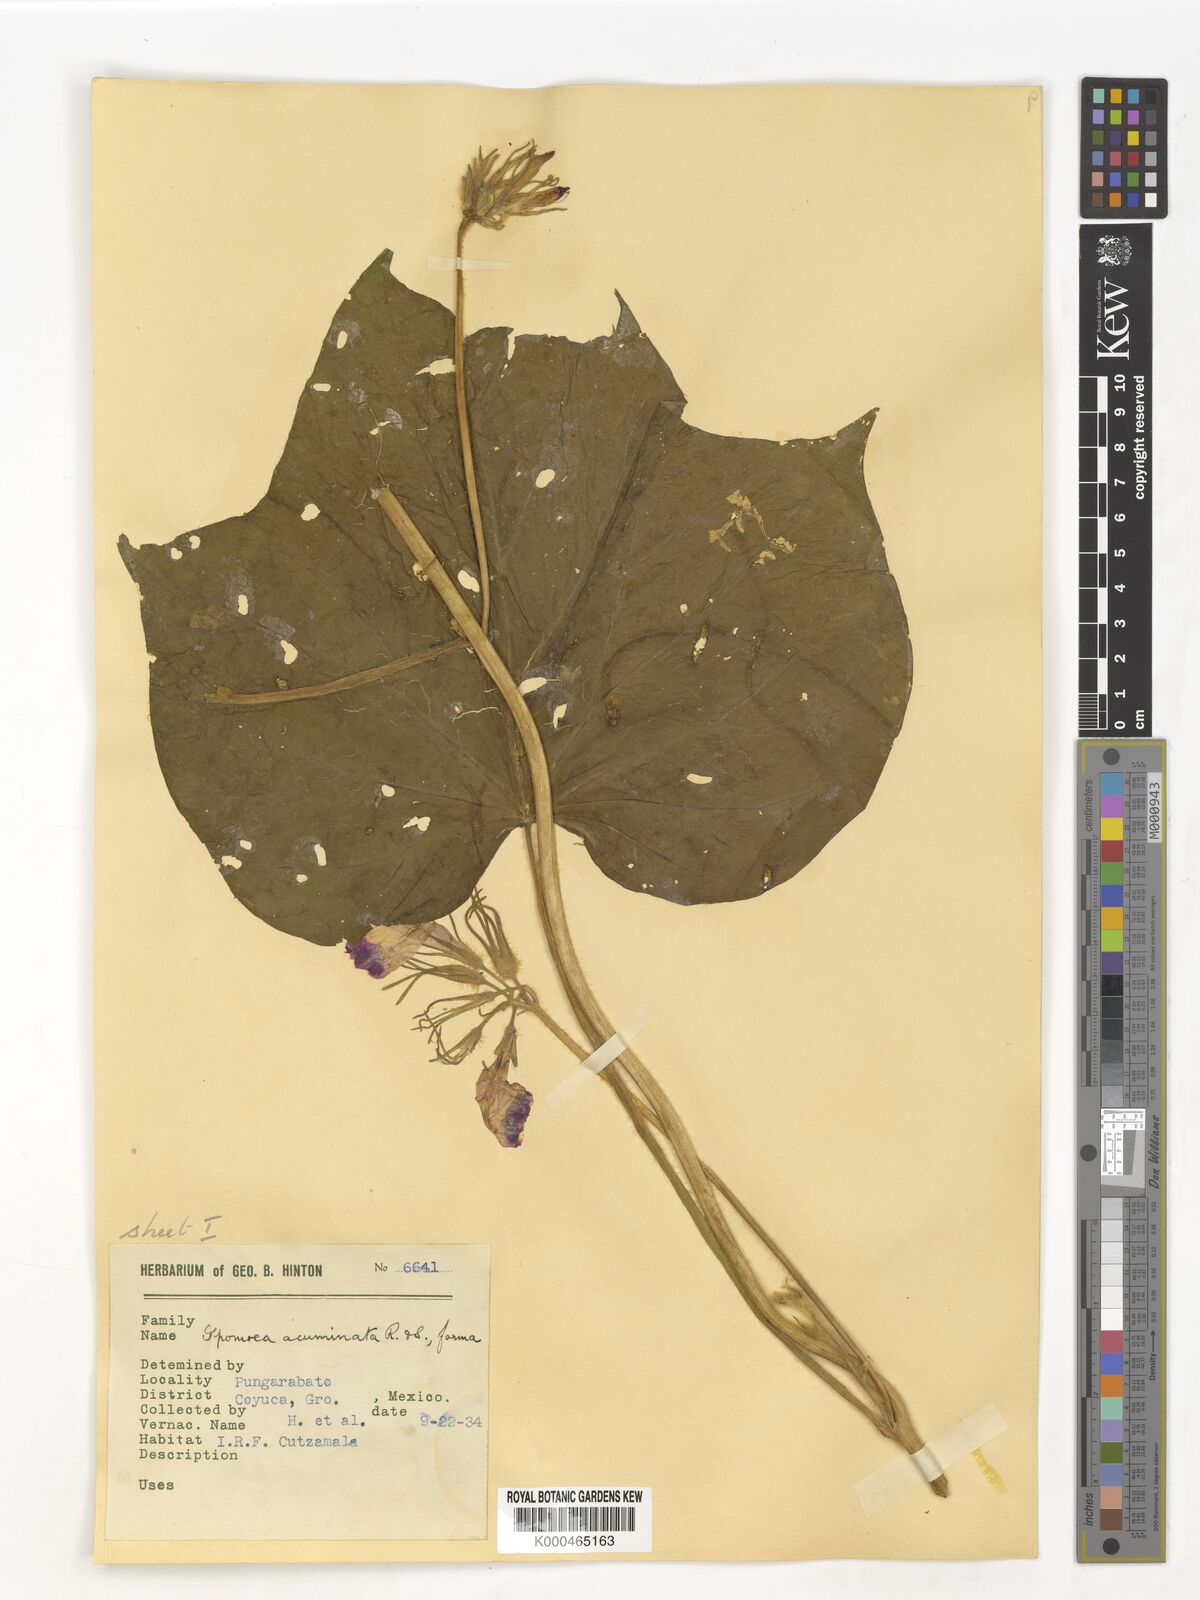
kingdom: Plantae
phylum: Tracheophyta
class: Magnoliopsida
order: Solanales
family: Convolvulaceae
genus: Ipomoea
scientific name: Ipomoea
